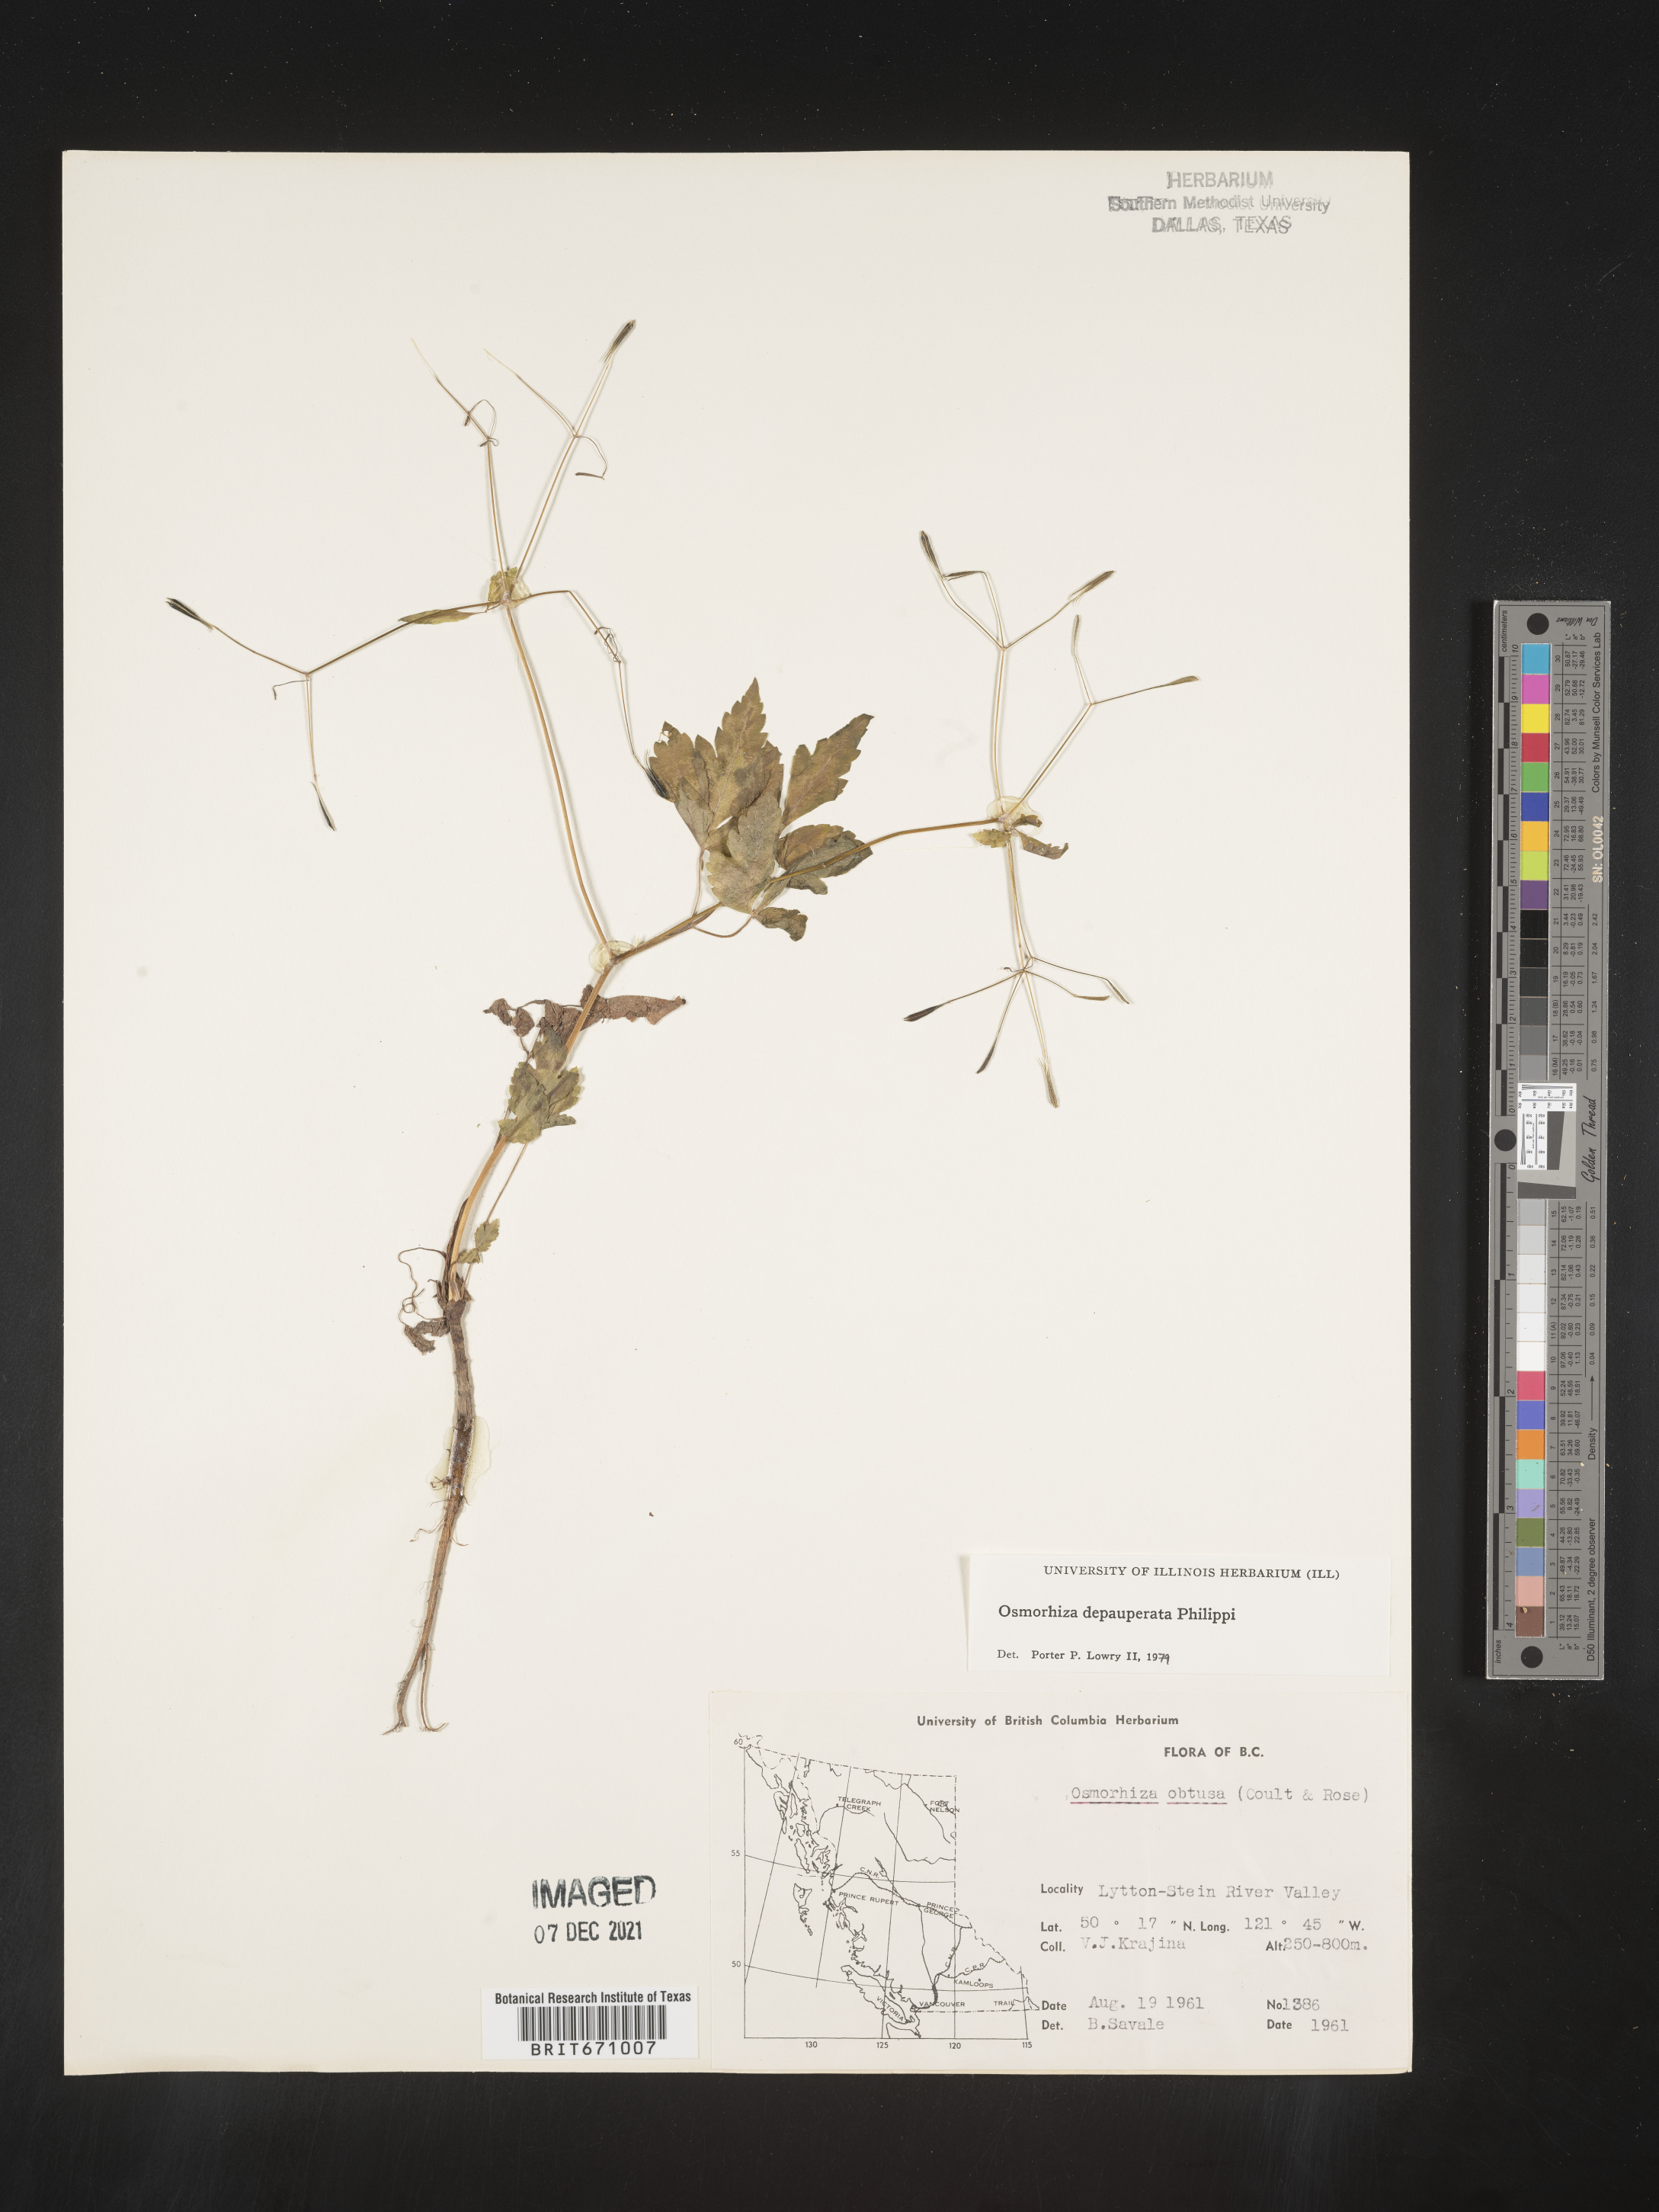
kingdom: Plantae
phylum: Tracheophyta
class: Magnoliopsida
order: Apiales
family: Apiaceae
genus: Osmorhiza
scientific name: Osmorhiza depauperata
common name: Blunt sweet cicely
